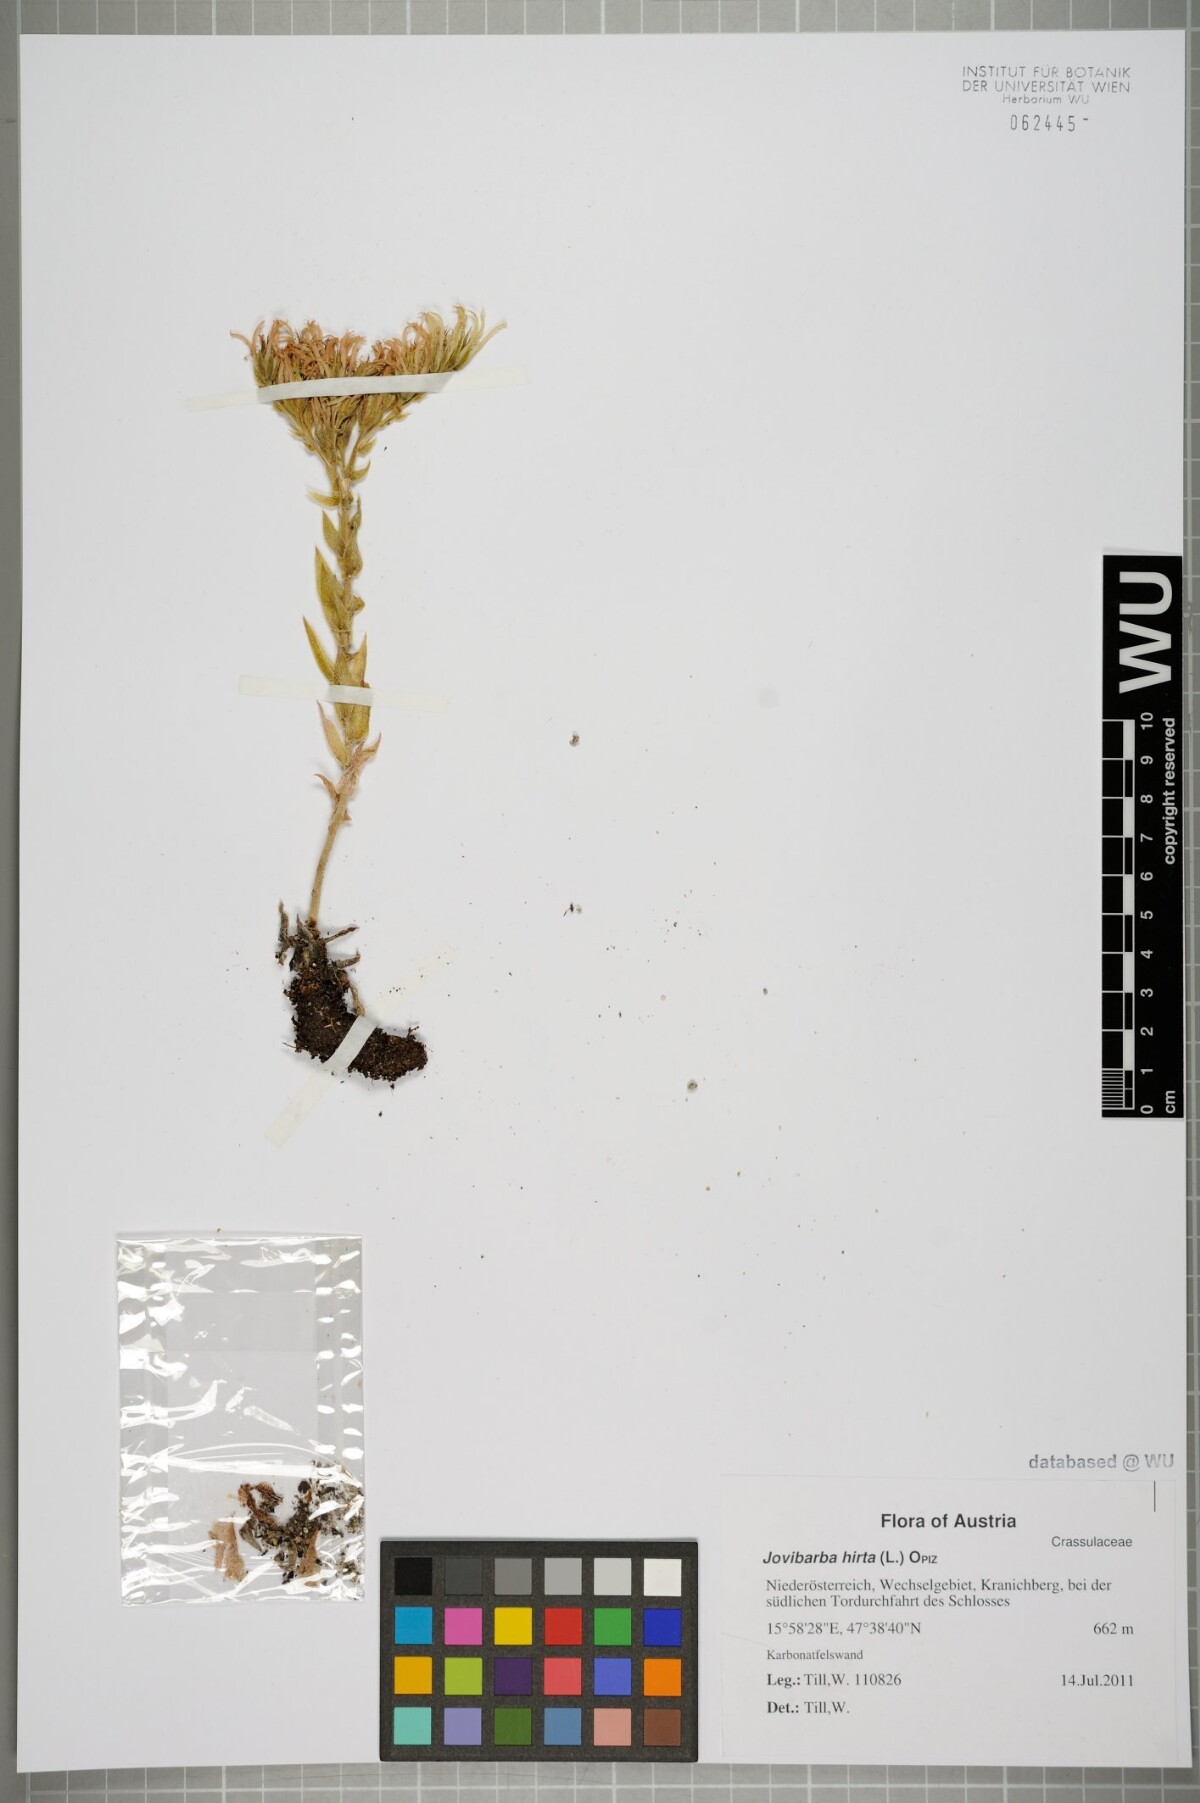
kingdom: Plantae
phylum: Tracheophyta
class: Magnoliopsida
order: Saxifragales
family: Crassulaceae
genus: Sempervivum
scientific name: Sempervivum globiferum
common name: Rolling hen-and-chicks
